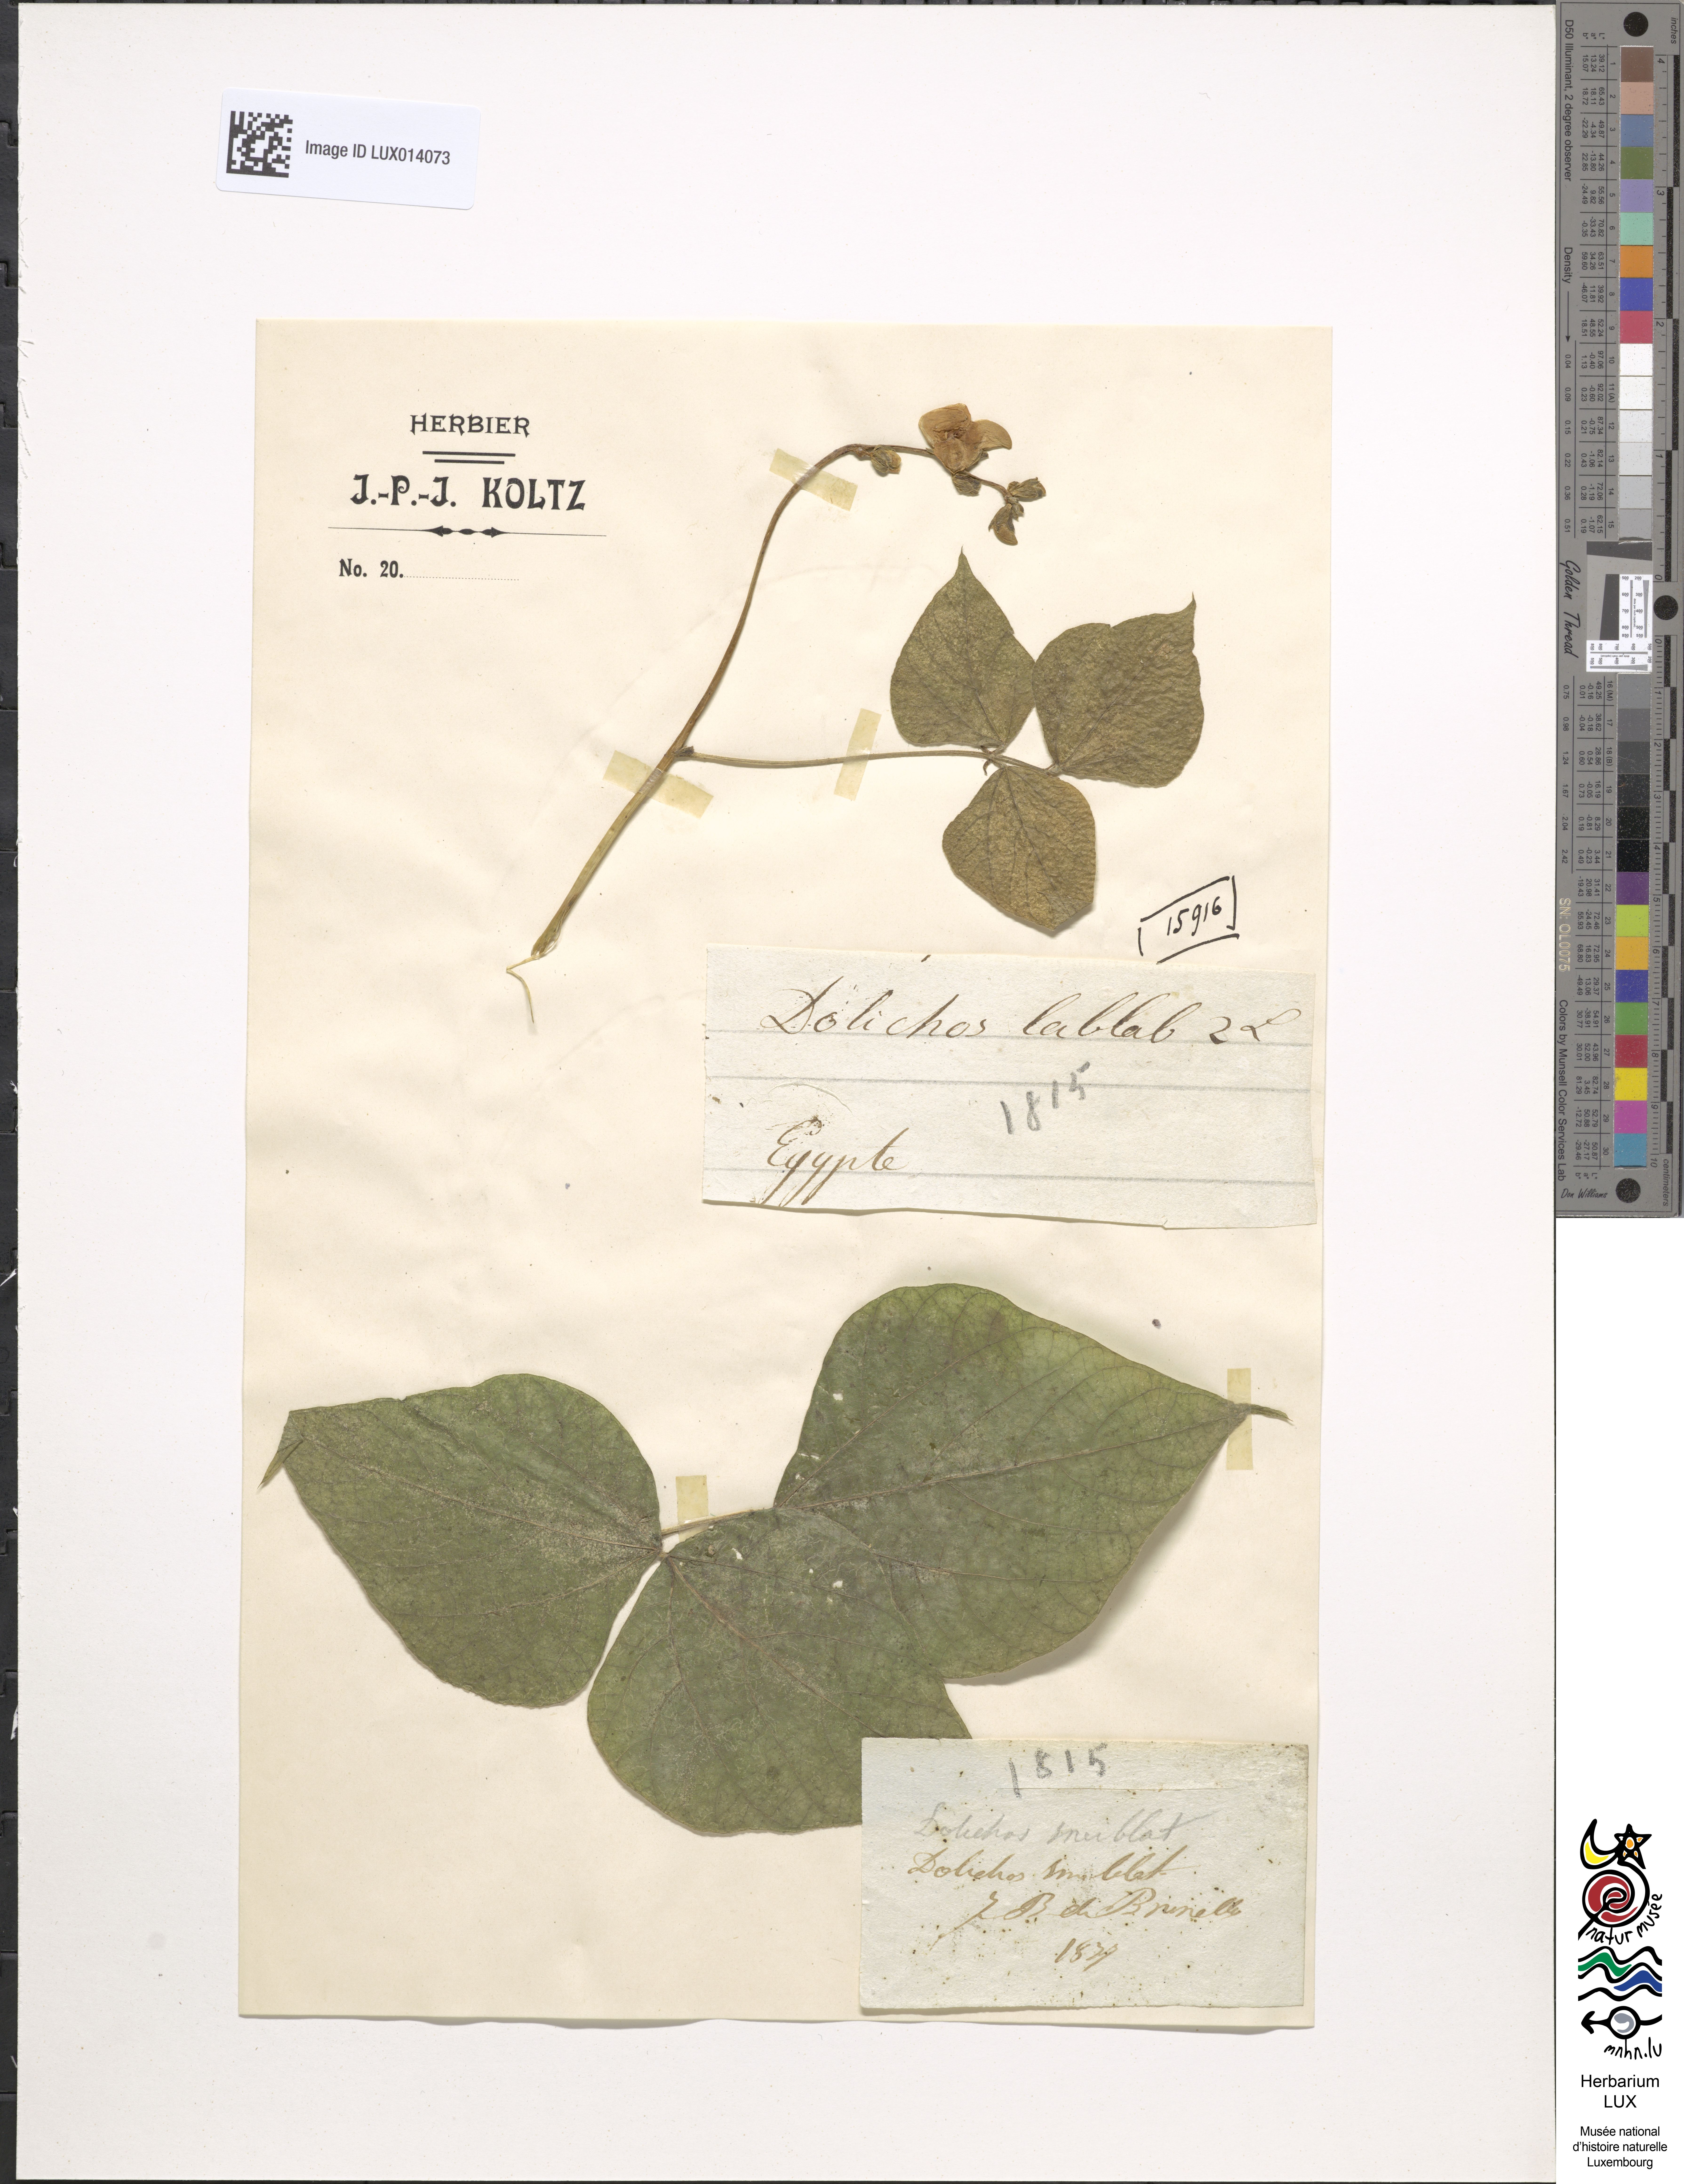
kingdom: Plantae
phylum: Tracheophyta
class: Magnoliopsida
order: Fabales
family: Fabaceae
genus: Lablab
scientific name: Lablab purpureus
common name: Lablab-bean
